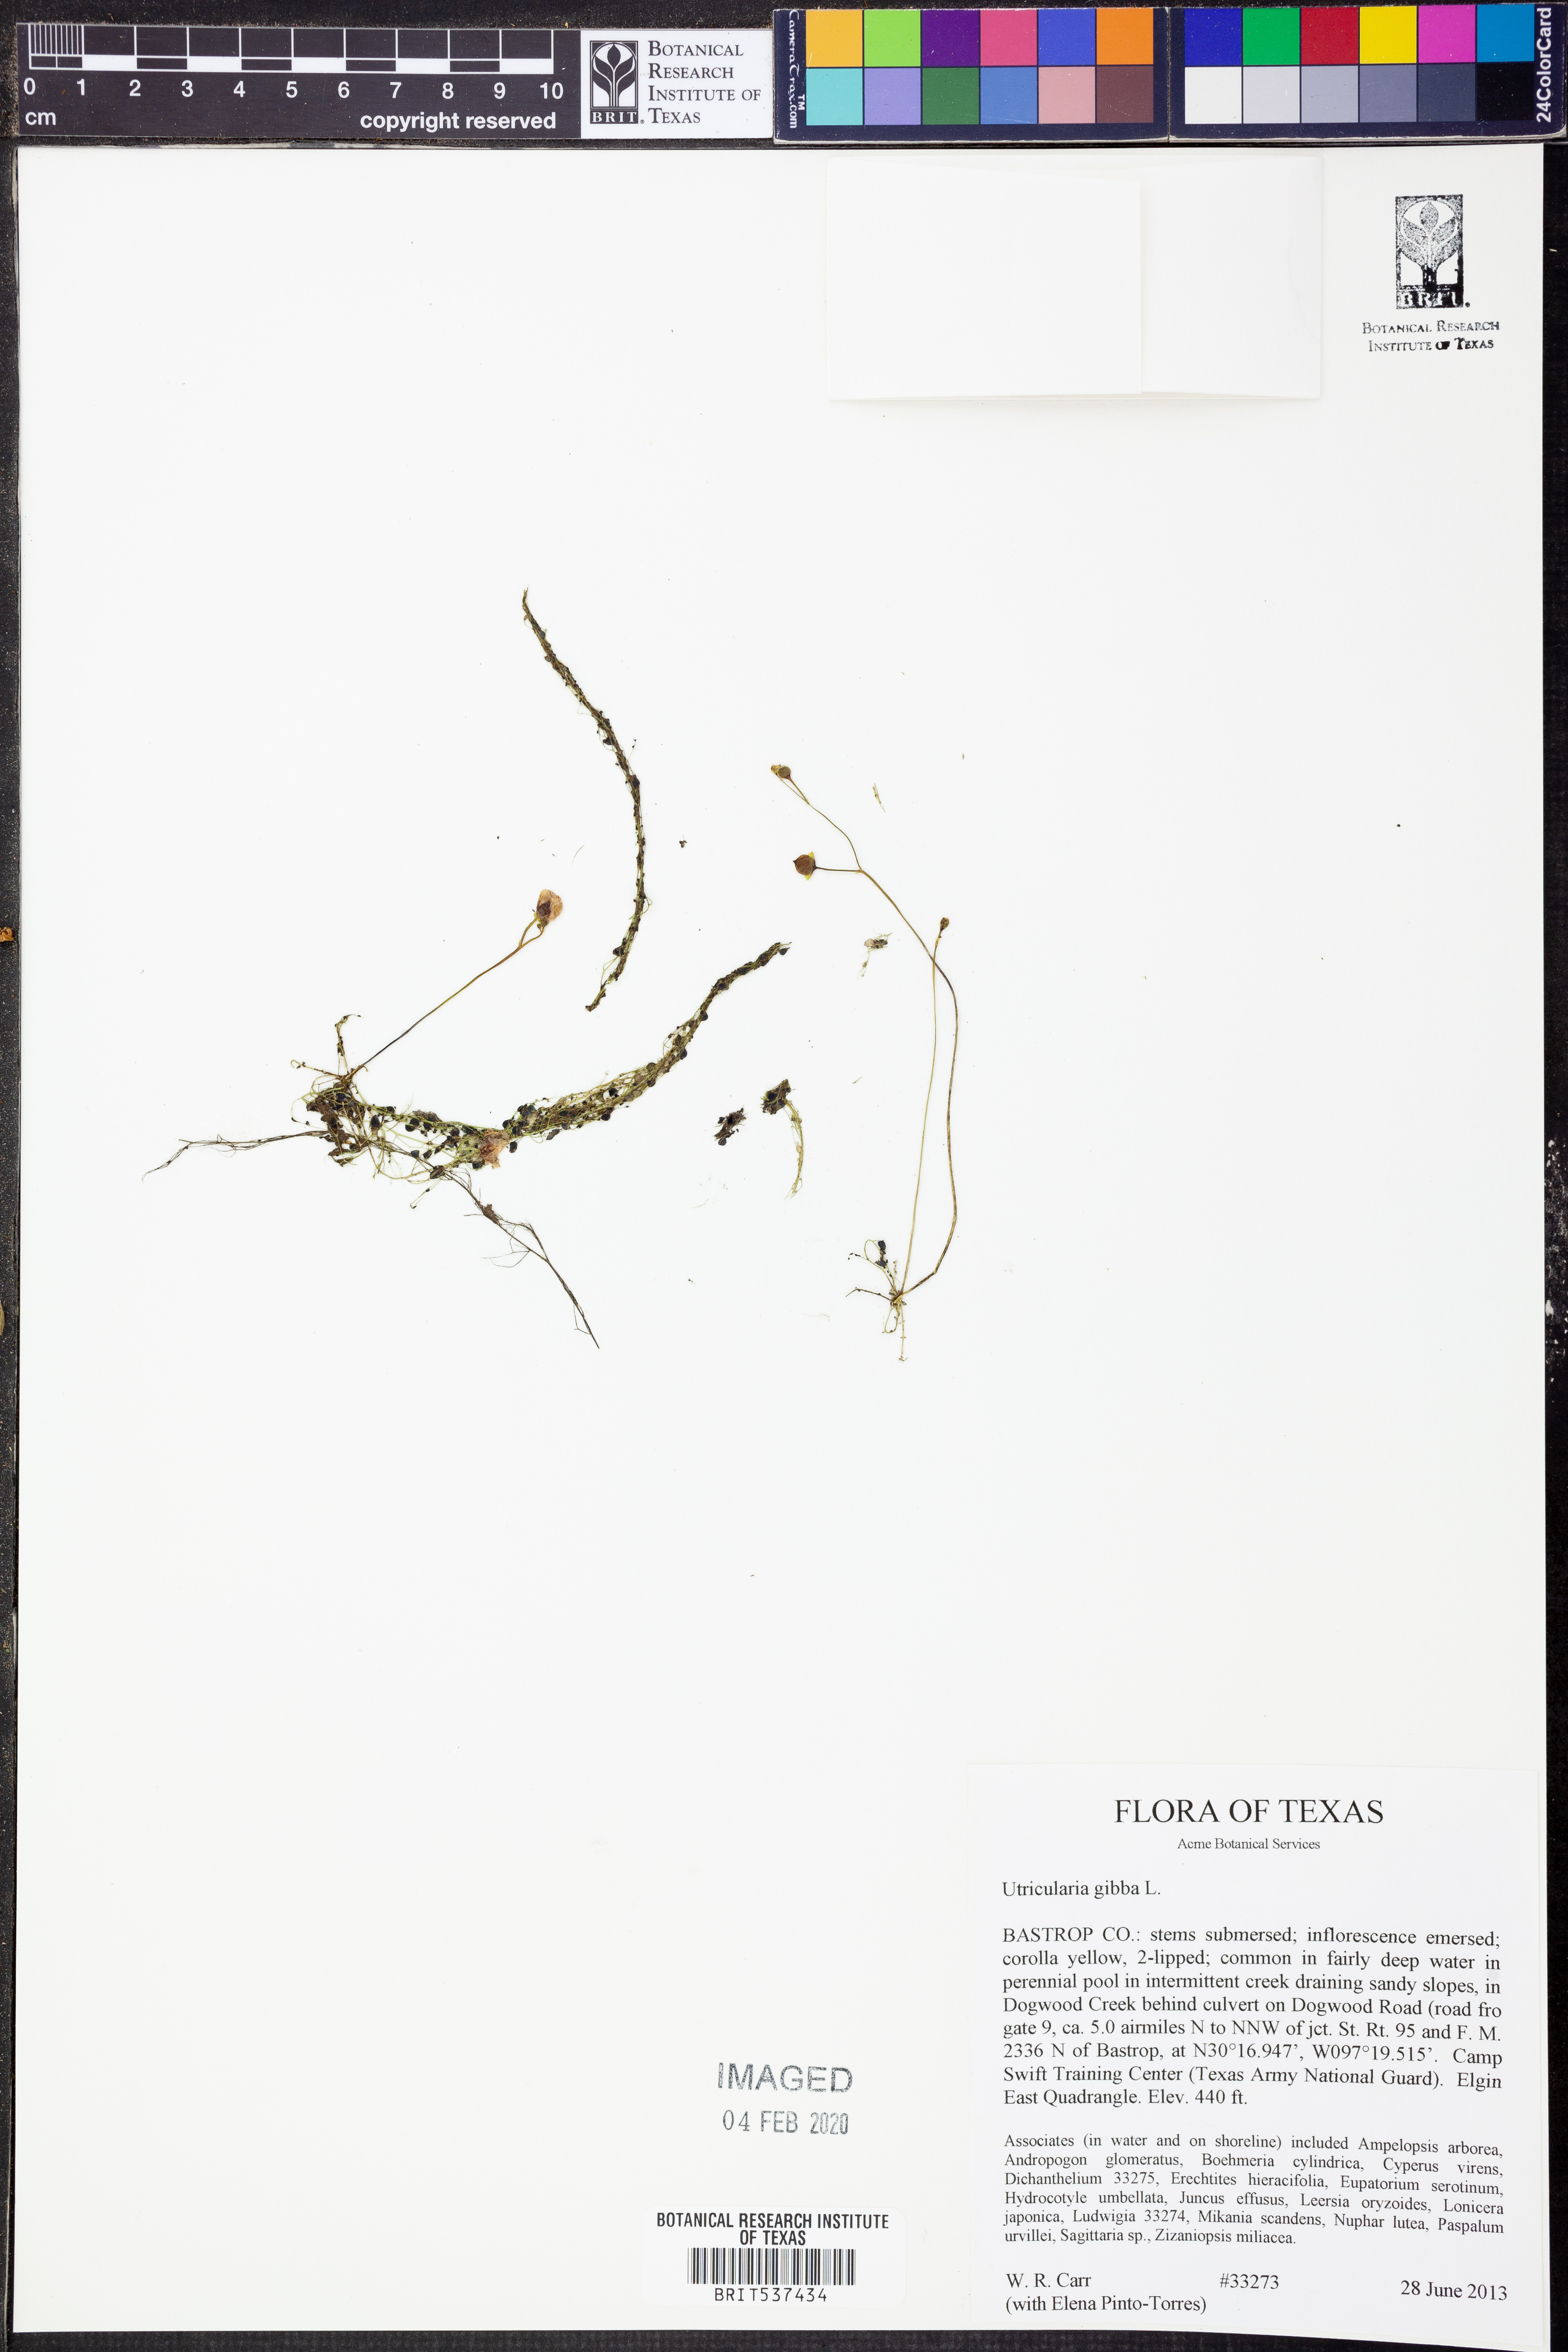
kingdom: Plantae
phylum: Tracheophyta
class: Magnoliopsida
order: Lamiales
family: Lentibulariaceae
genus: Utricularia
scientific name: Utricularia gibba
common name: Humped bladderwort
